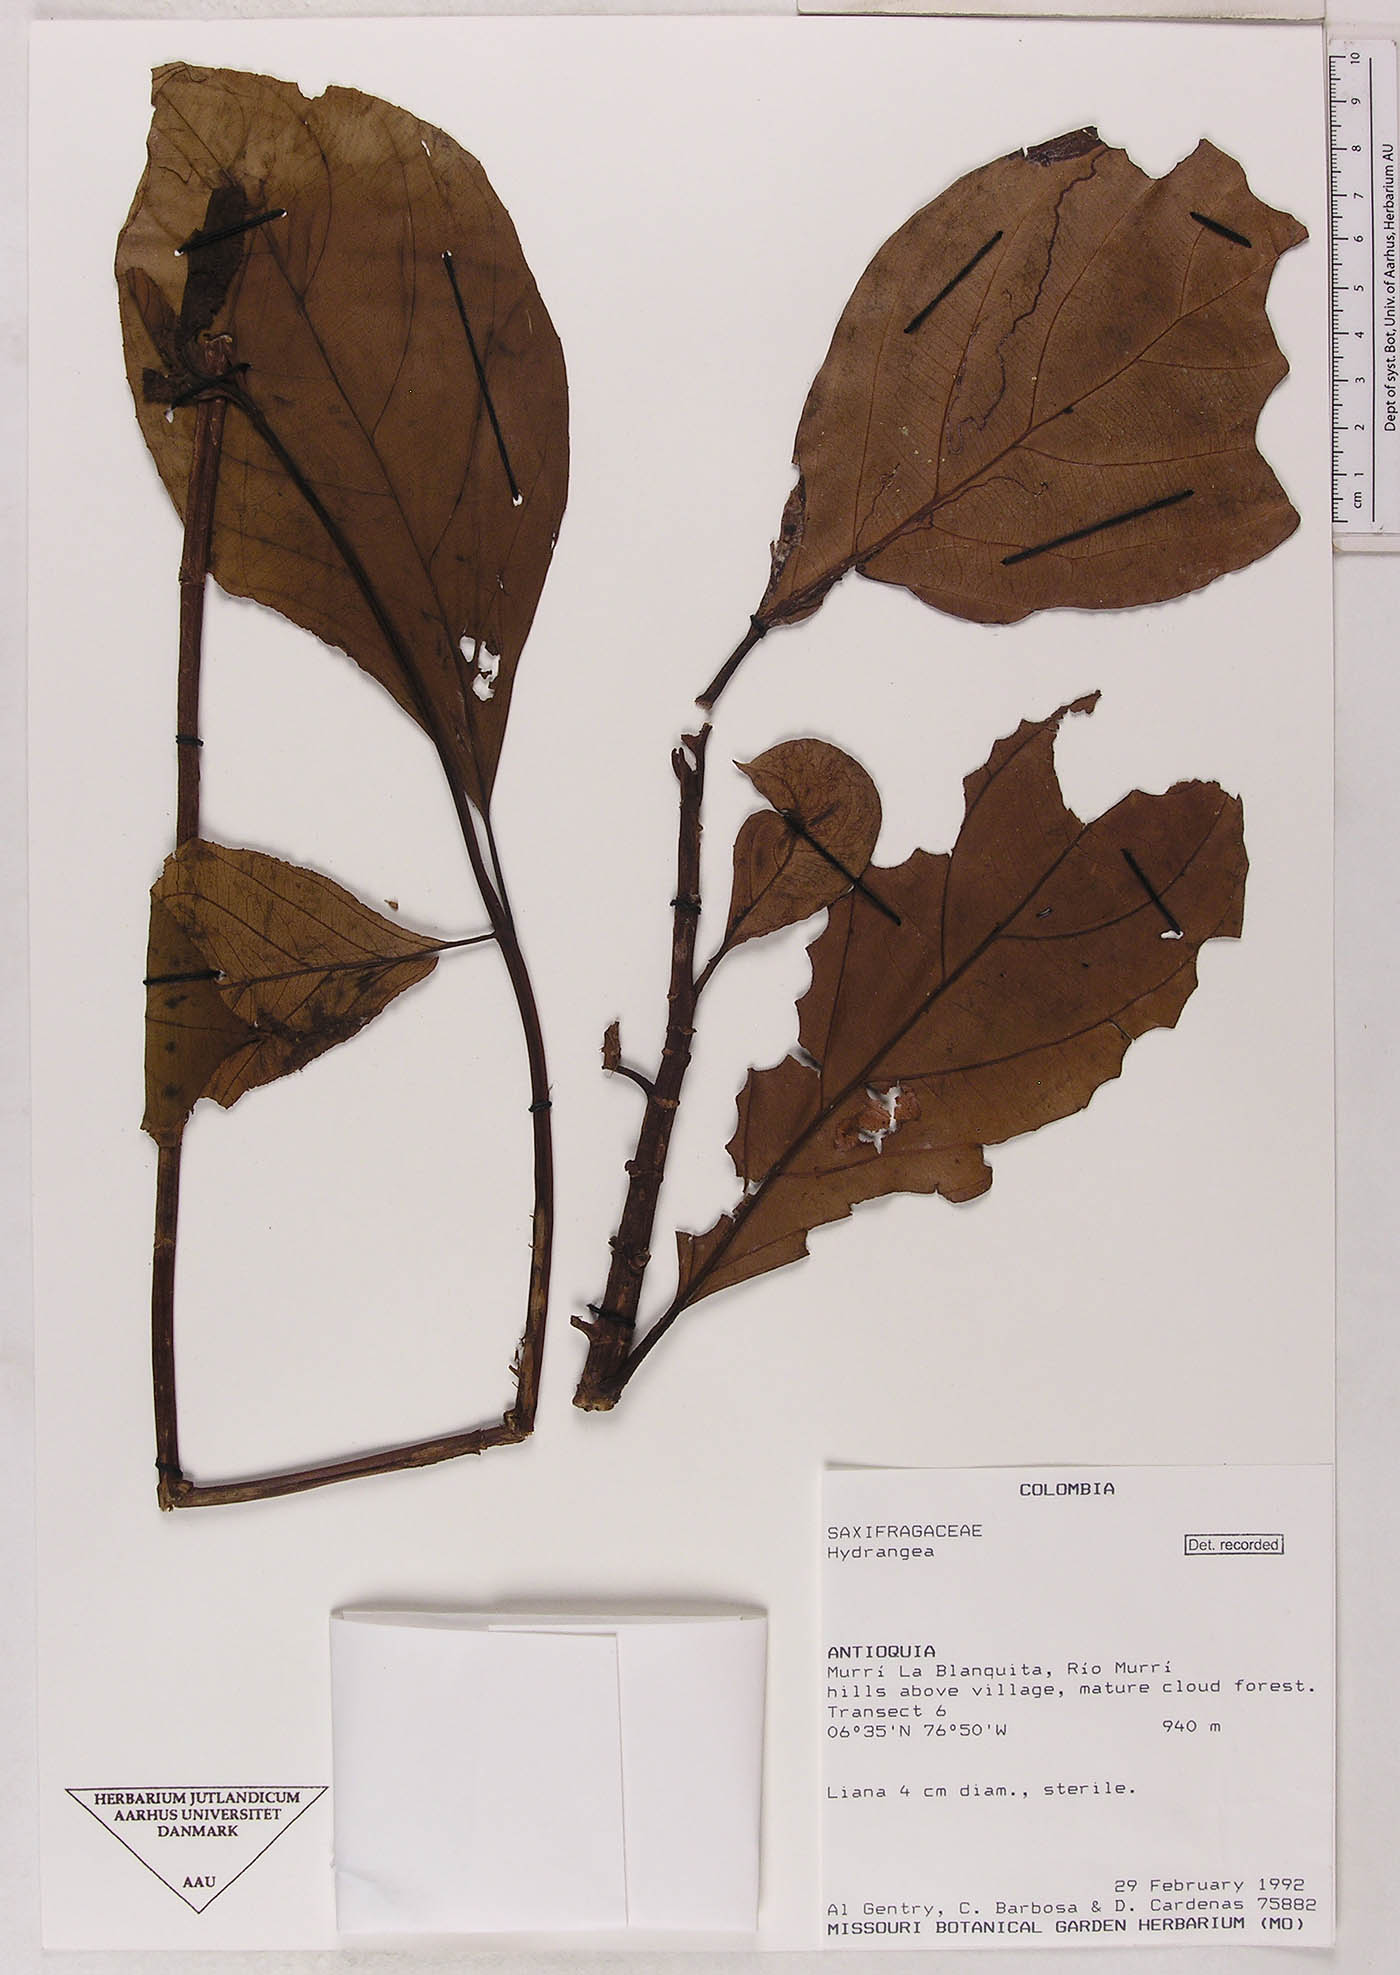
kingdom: Plantae
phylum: Tracheophyta
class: Magnoliopsida
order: Cornales
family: Hydrangeaceae
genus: Hydrangea
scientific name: Hydrangea
